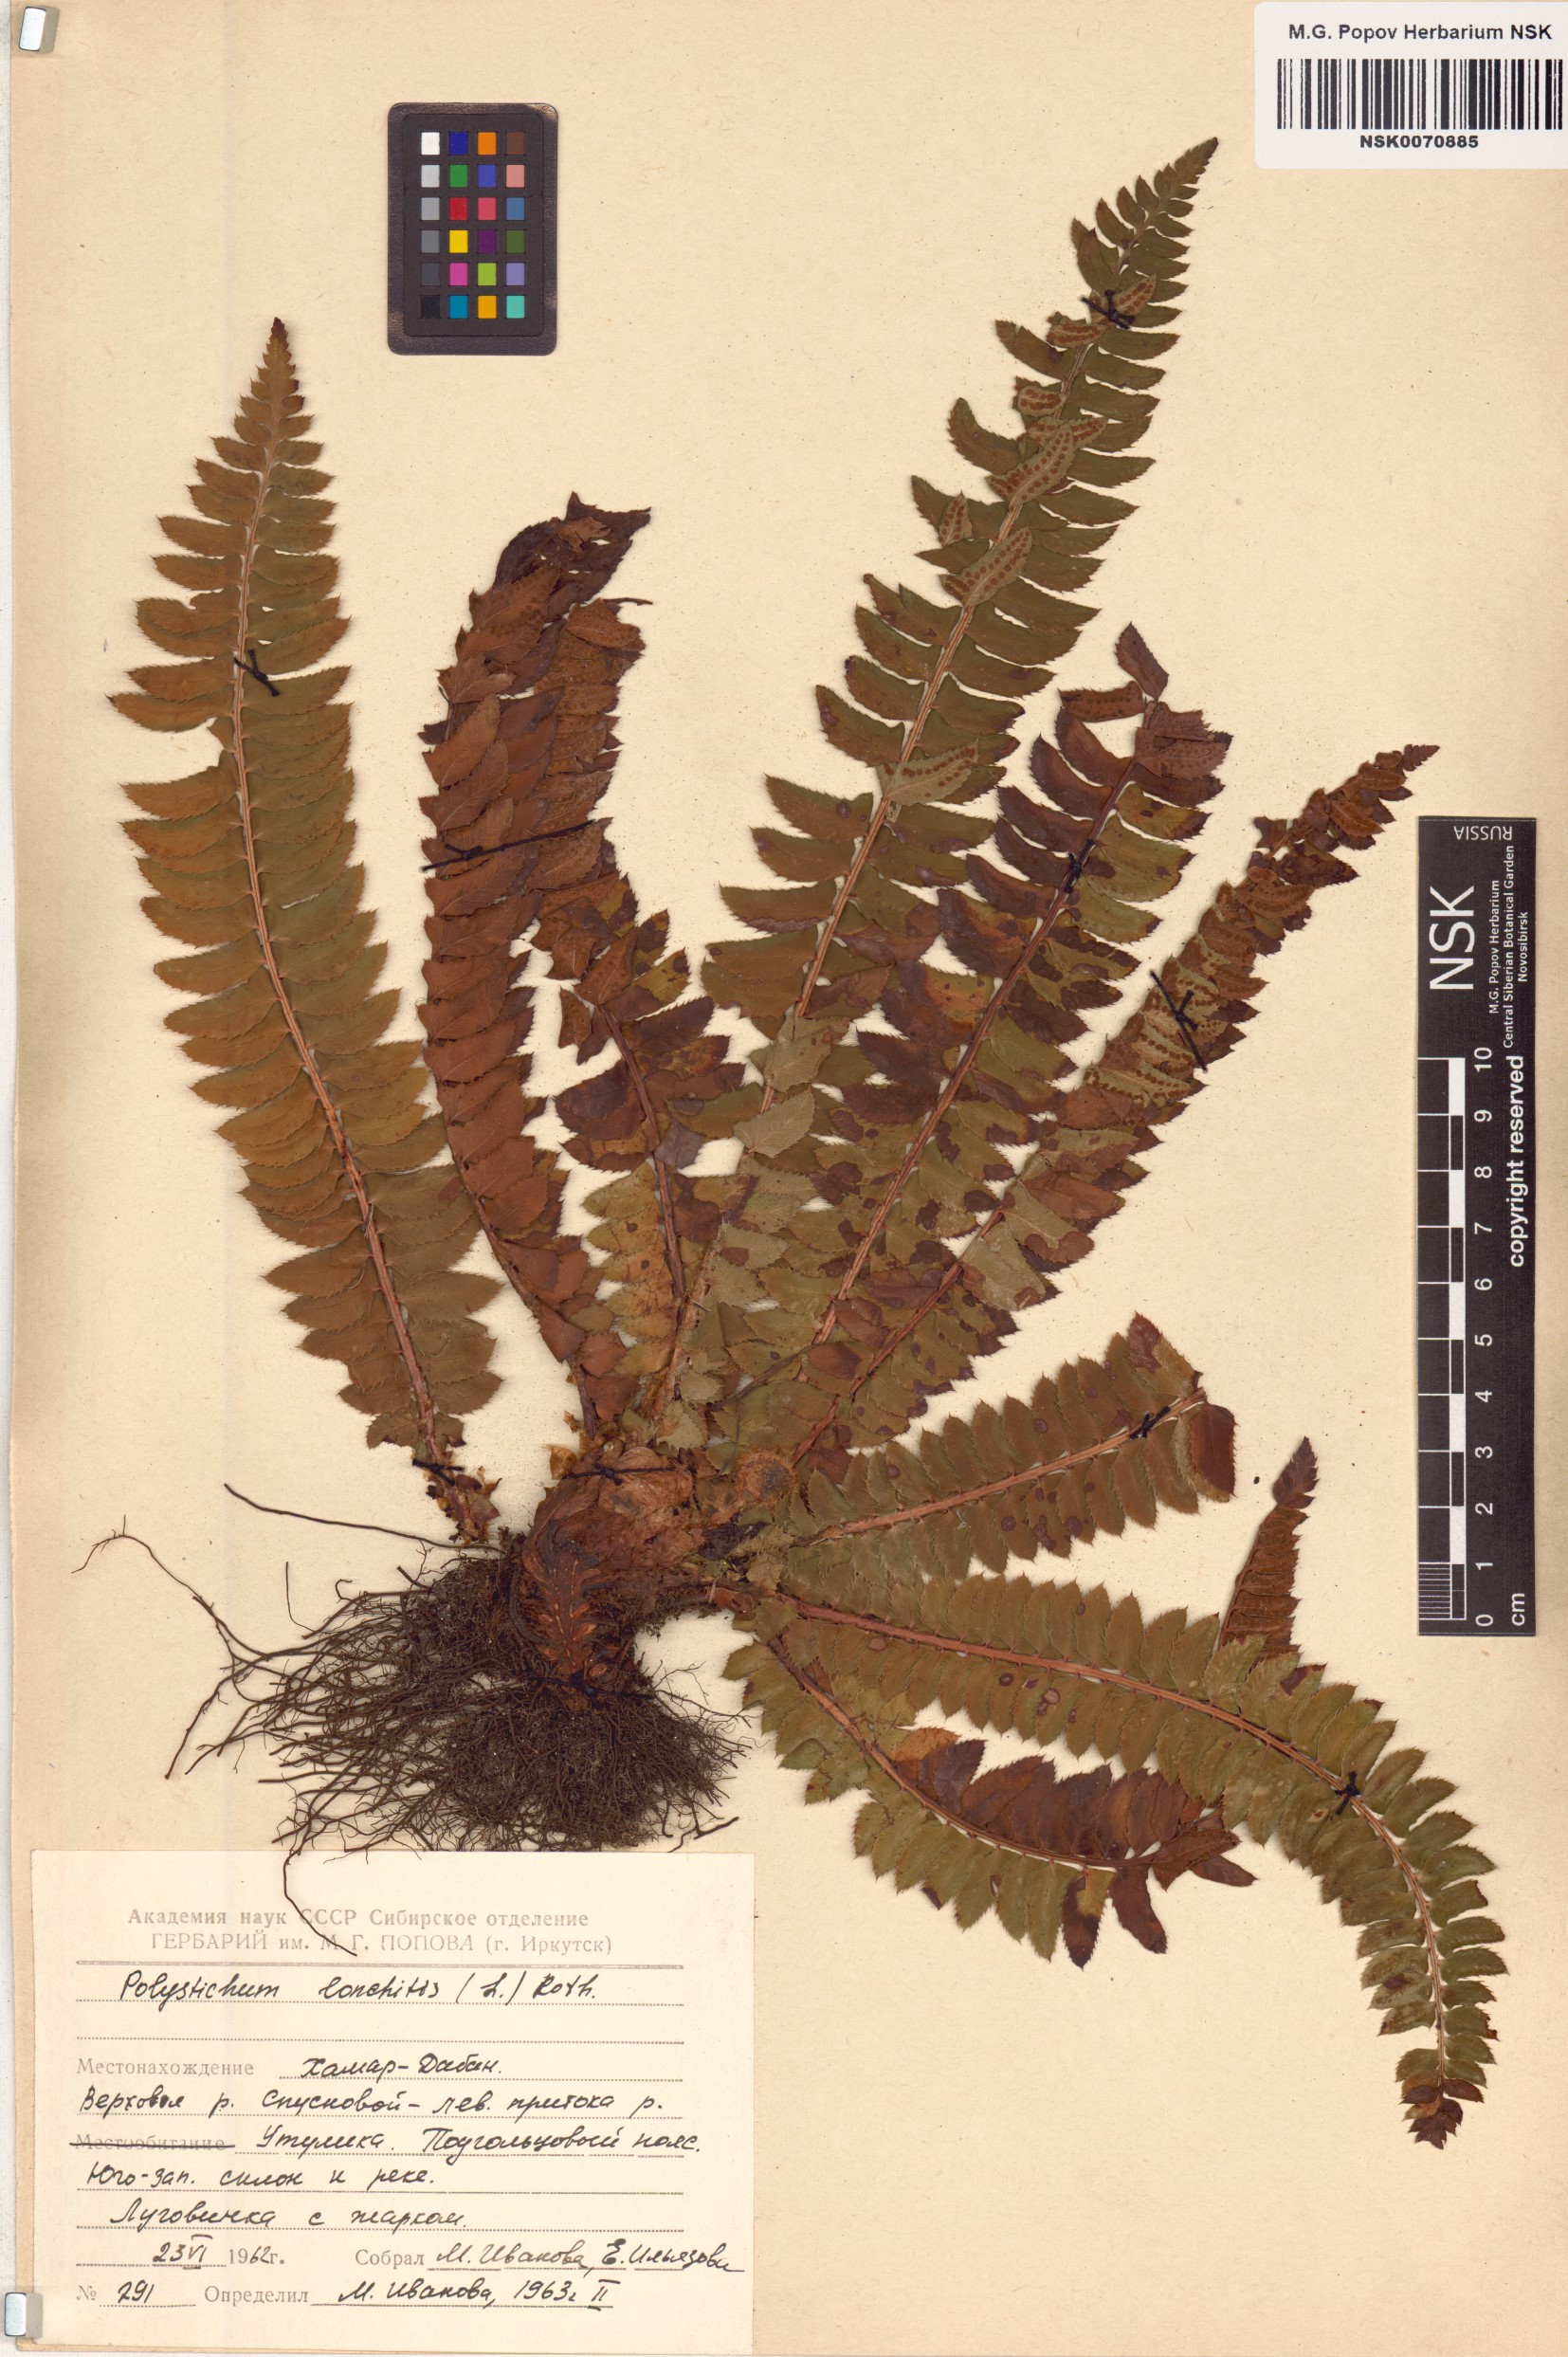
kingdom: Plantae
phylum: Tracheophyta
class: Polypodiopsida
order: Polypodiales
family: Dryopteridaceae
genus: Polystichum
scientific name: Polystichum lonchitis
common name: Holly fern
